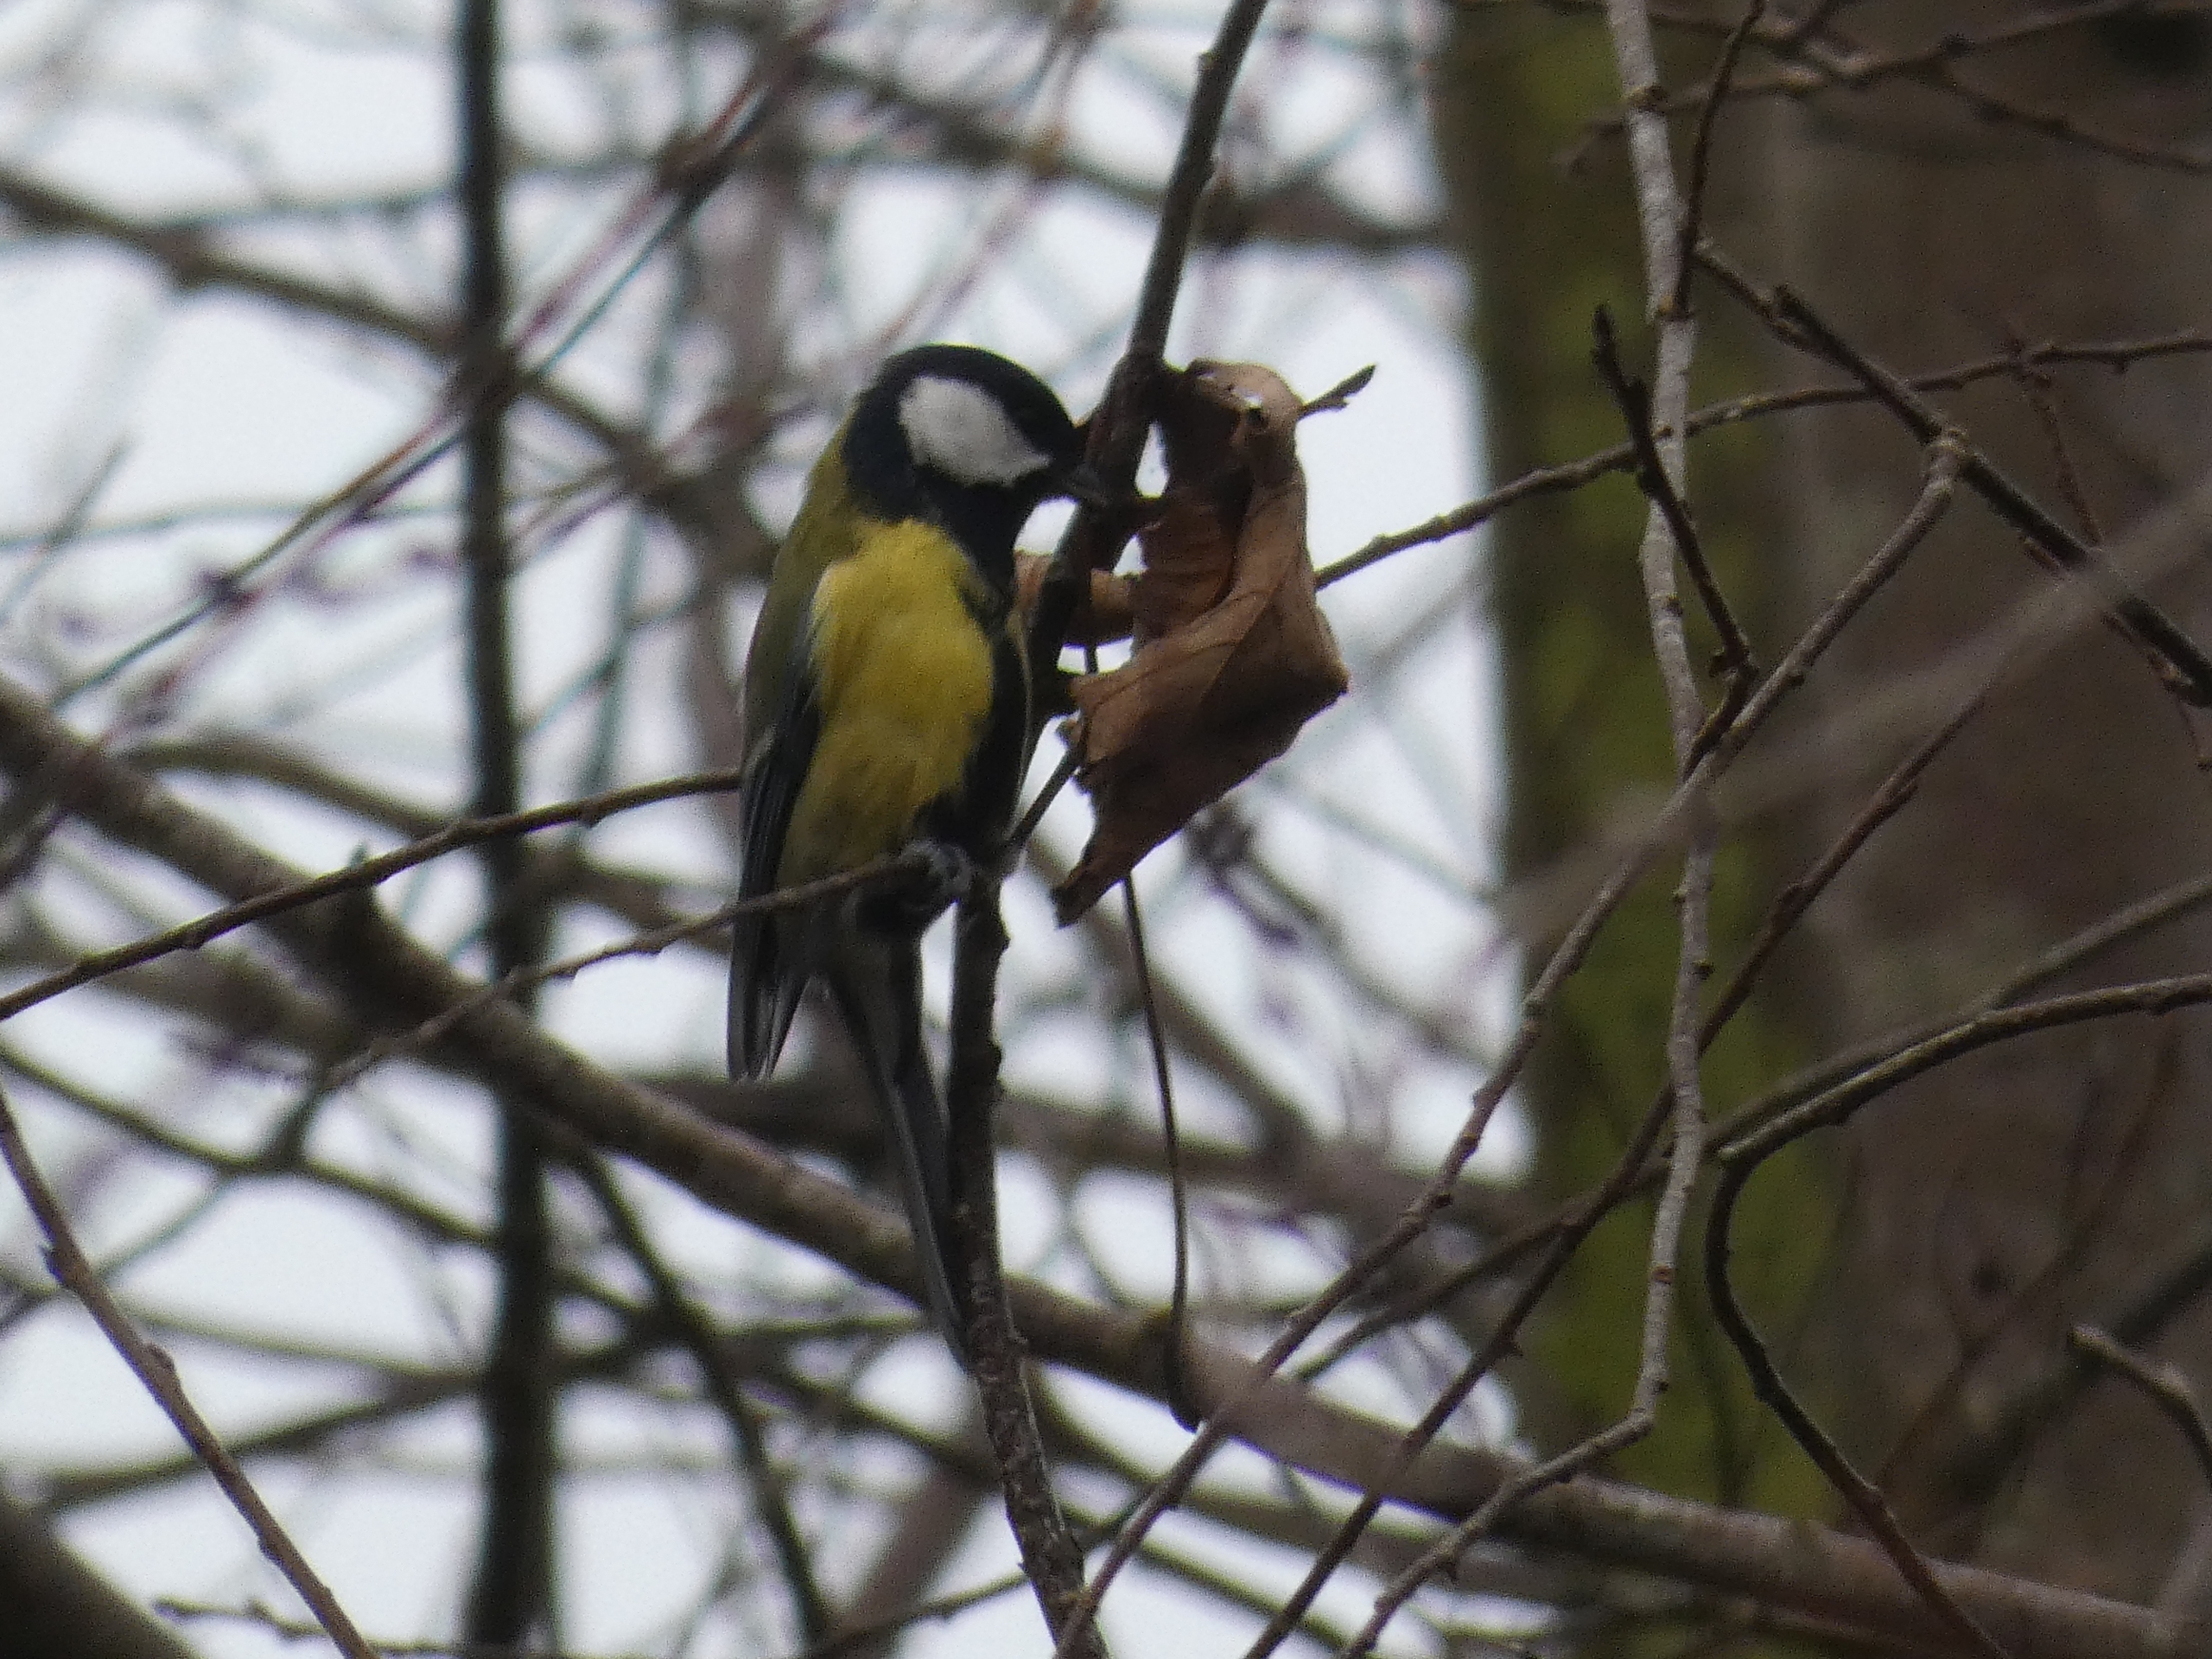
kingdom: Animalia
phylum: Chordata
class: Aves
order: Passeriformes
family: Paridae
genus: Parus
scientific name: Parus major
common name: Musvit
